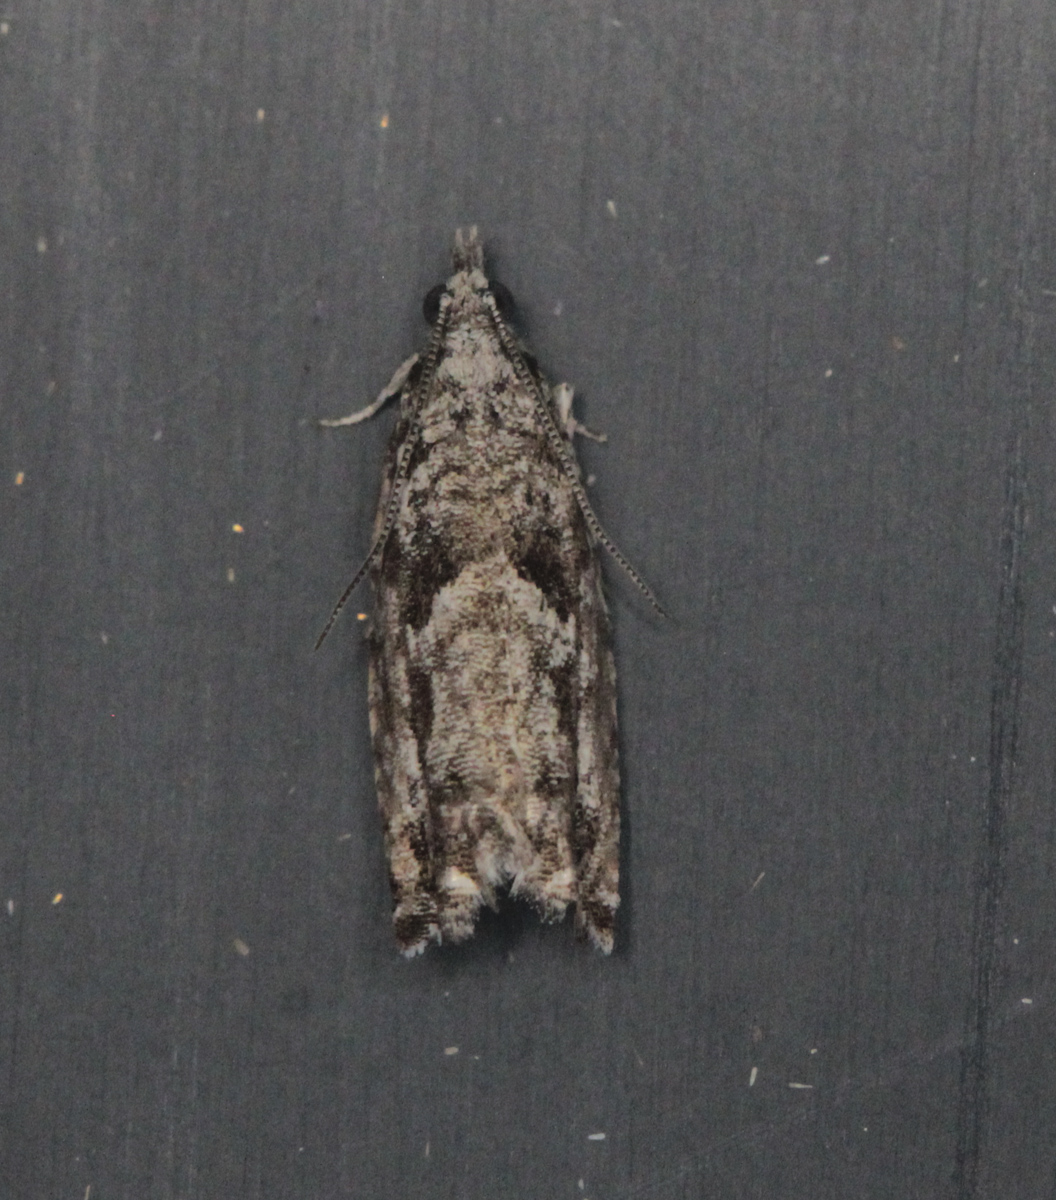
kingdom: Animalia
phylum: Arthropoda
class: Insecta
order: Lepidoptera
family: Tortricidae
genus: Epinotia
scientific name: Epinotia cinereana
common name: Grey aspen bell
